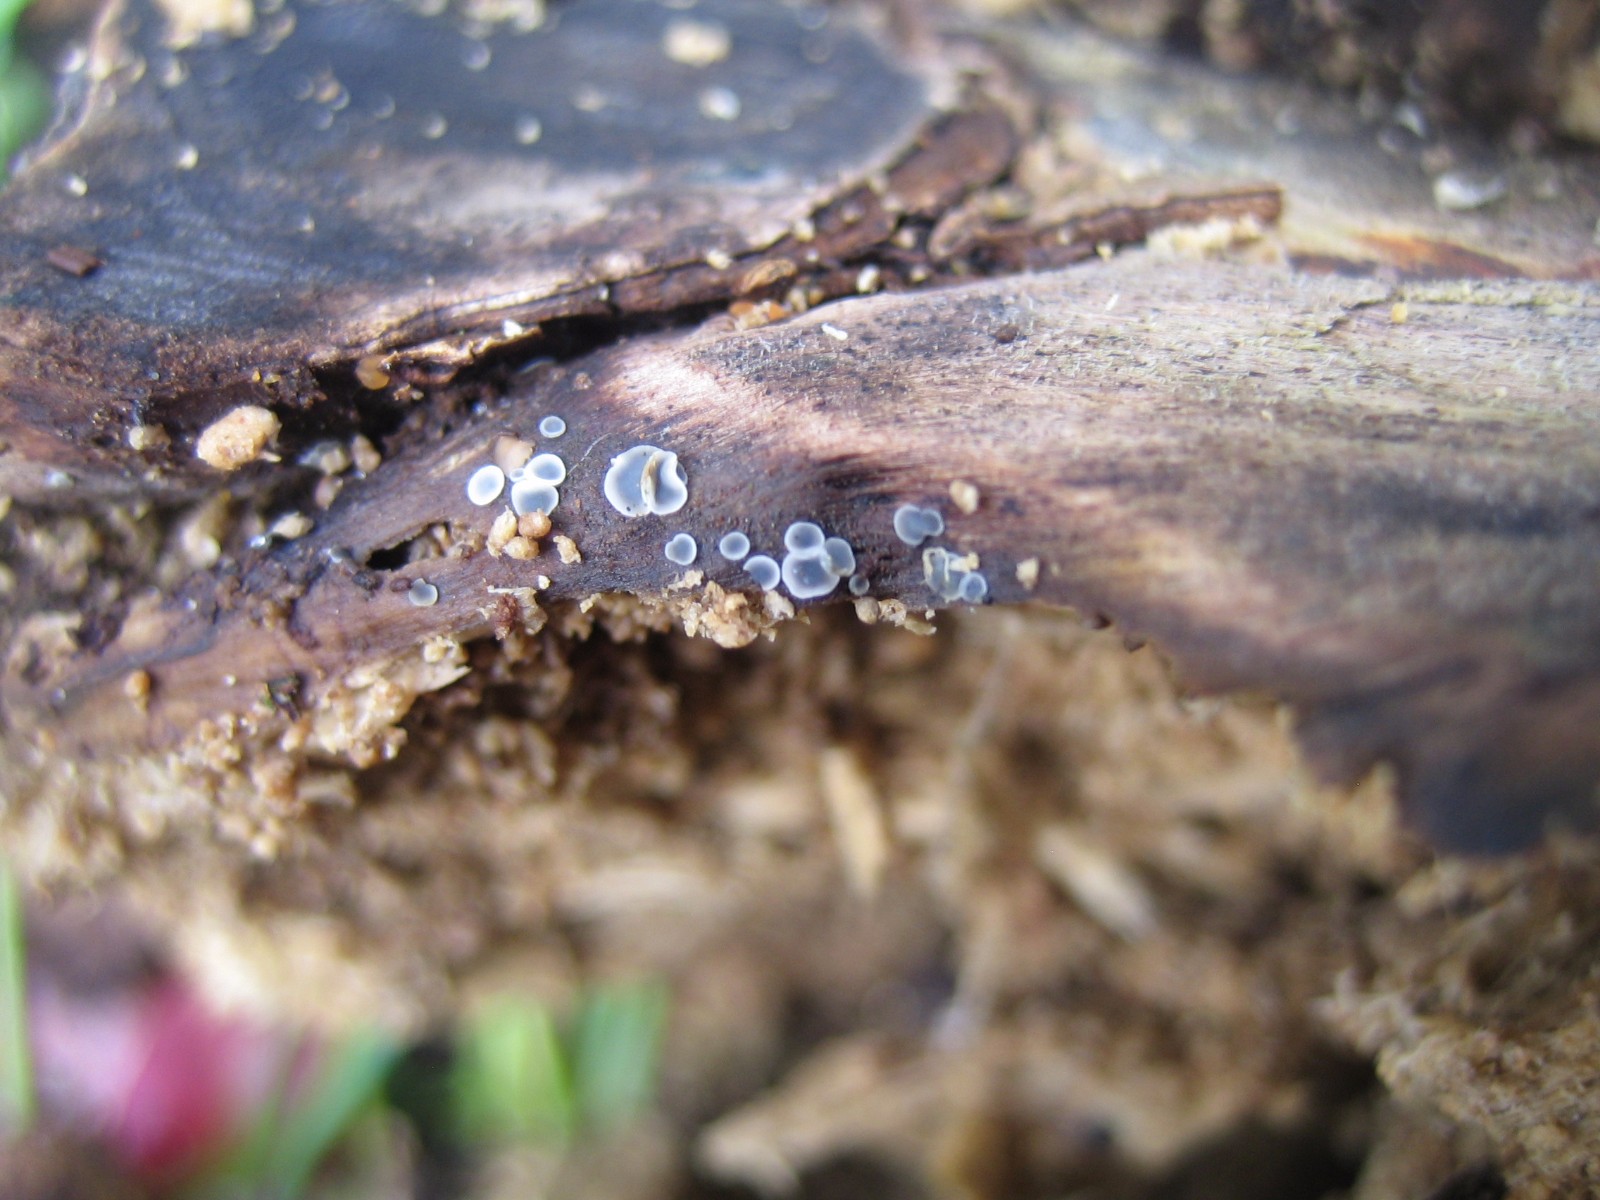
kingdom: Fungi
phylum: Ascomycota
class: Leotiomycetes
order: Helotiales
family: Mollisiaceae
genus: Mollisia
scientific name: Mollisia cinerea
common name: almindelig gråskive
